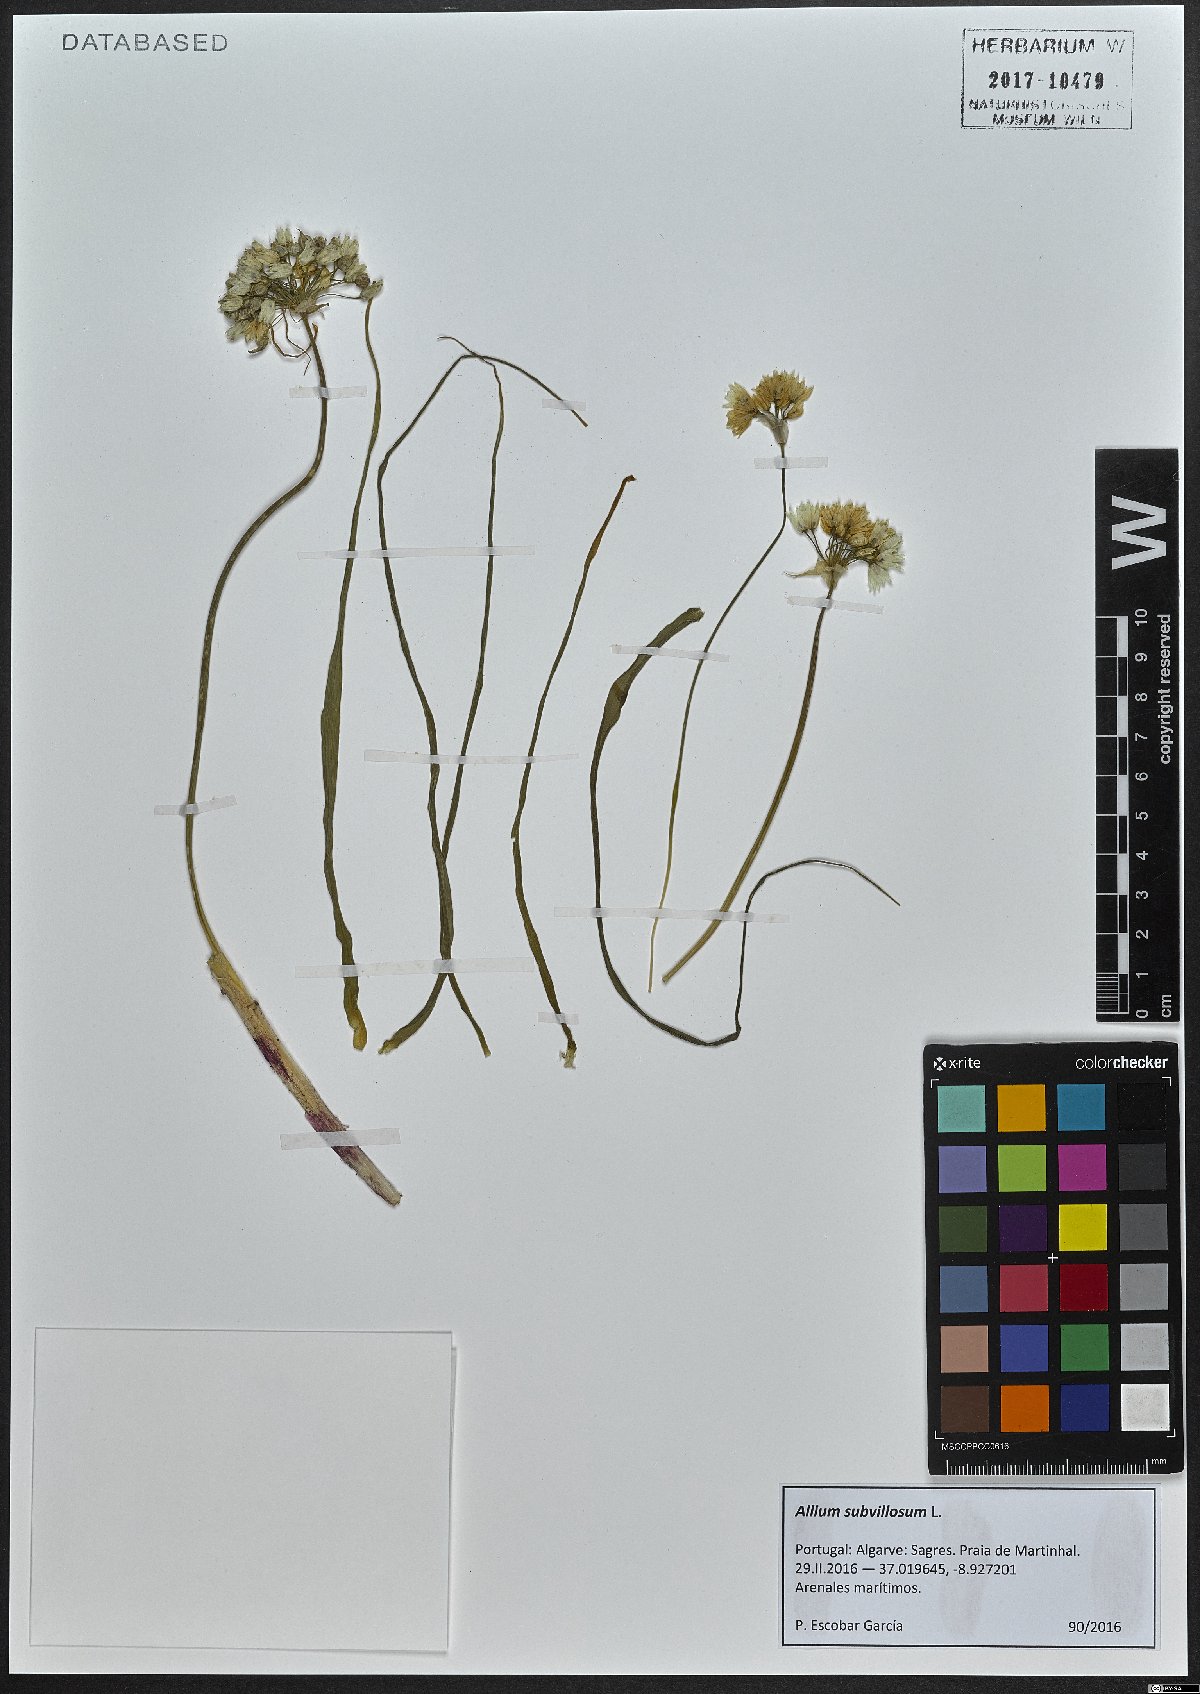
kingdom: Plantae
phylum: Tracheophyta
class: Liliopsida
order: Asparagales
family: Amaryllidaceae
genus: Allium
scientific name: Allium subvillosum
